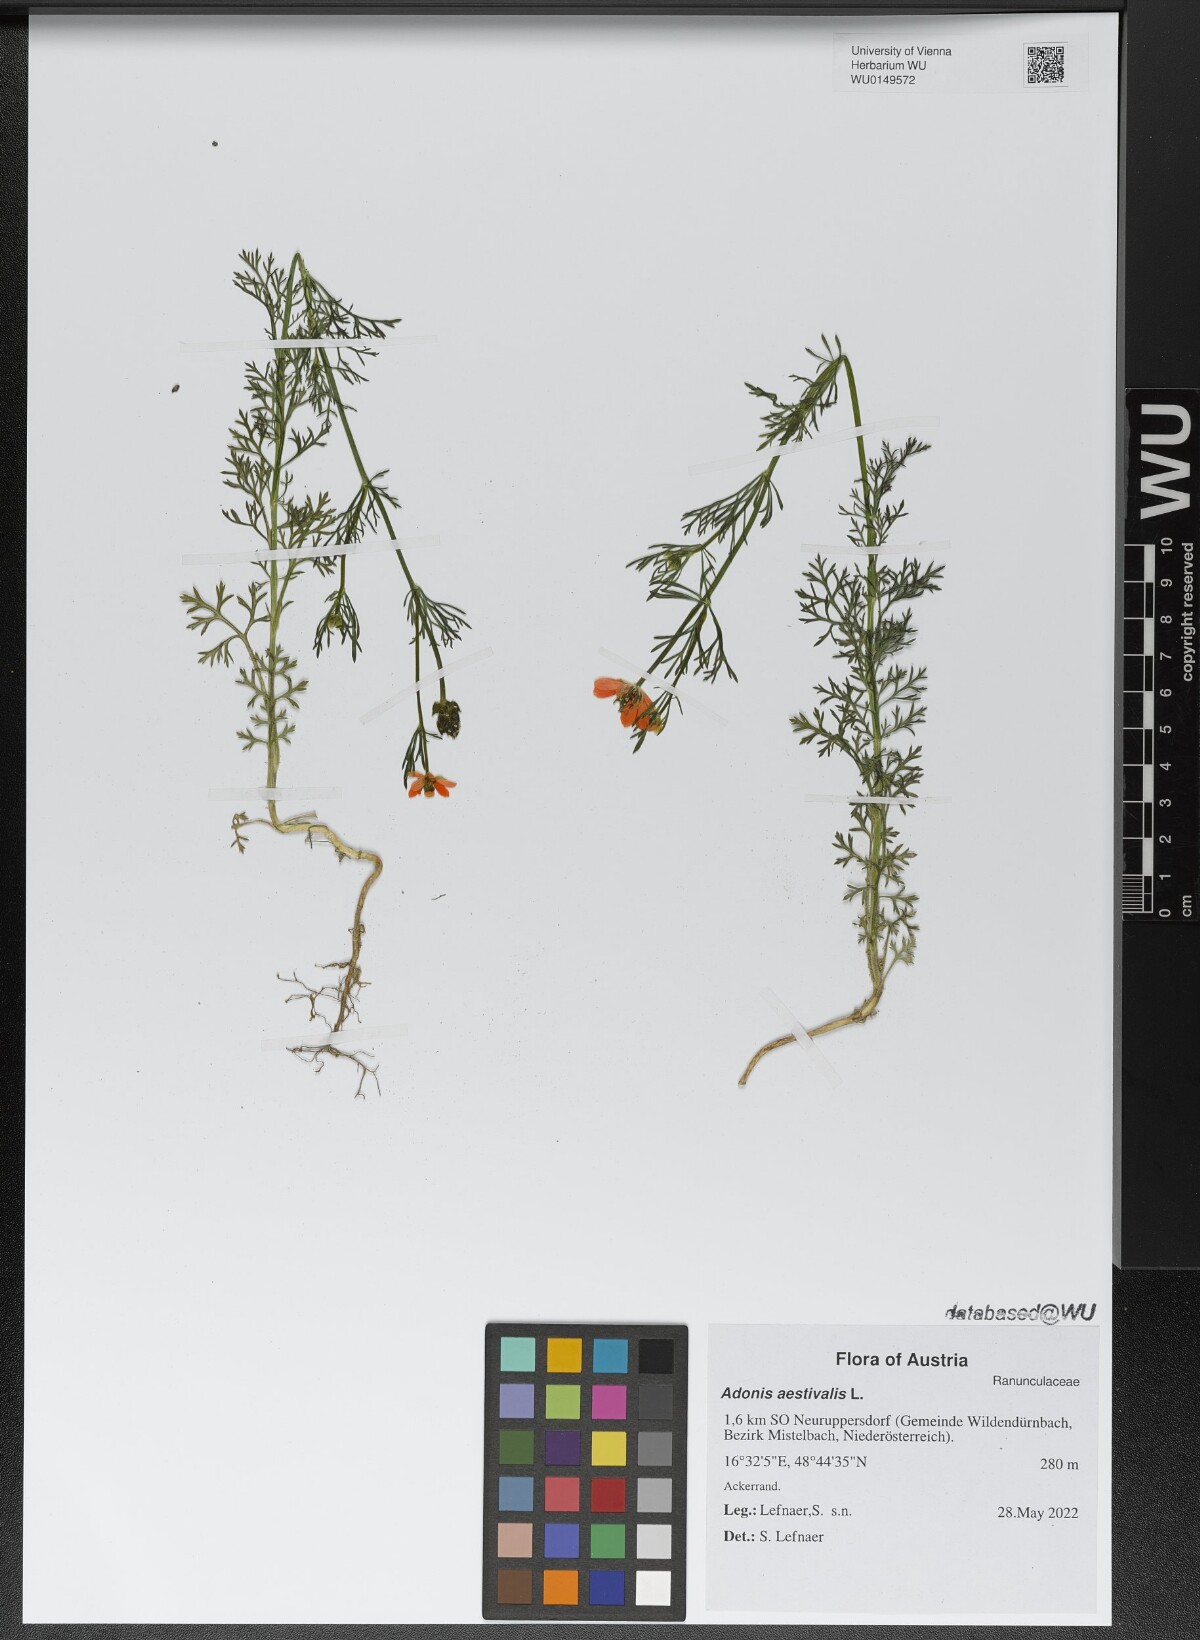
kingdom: Plantae
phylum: Tracheophyta
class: Magnoliopsida
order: Ranunculales
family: Ranunculaceae
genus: Adonis
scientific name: Adonis aestivalis
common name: Summer pheasant's-eye
